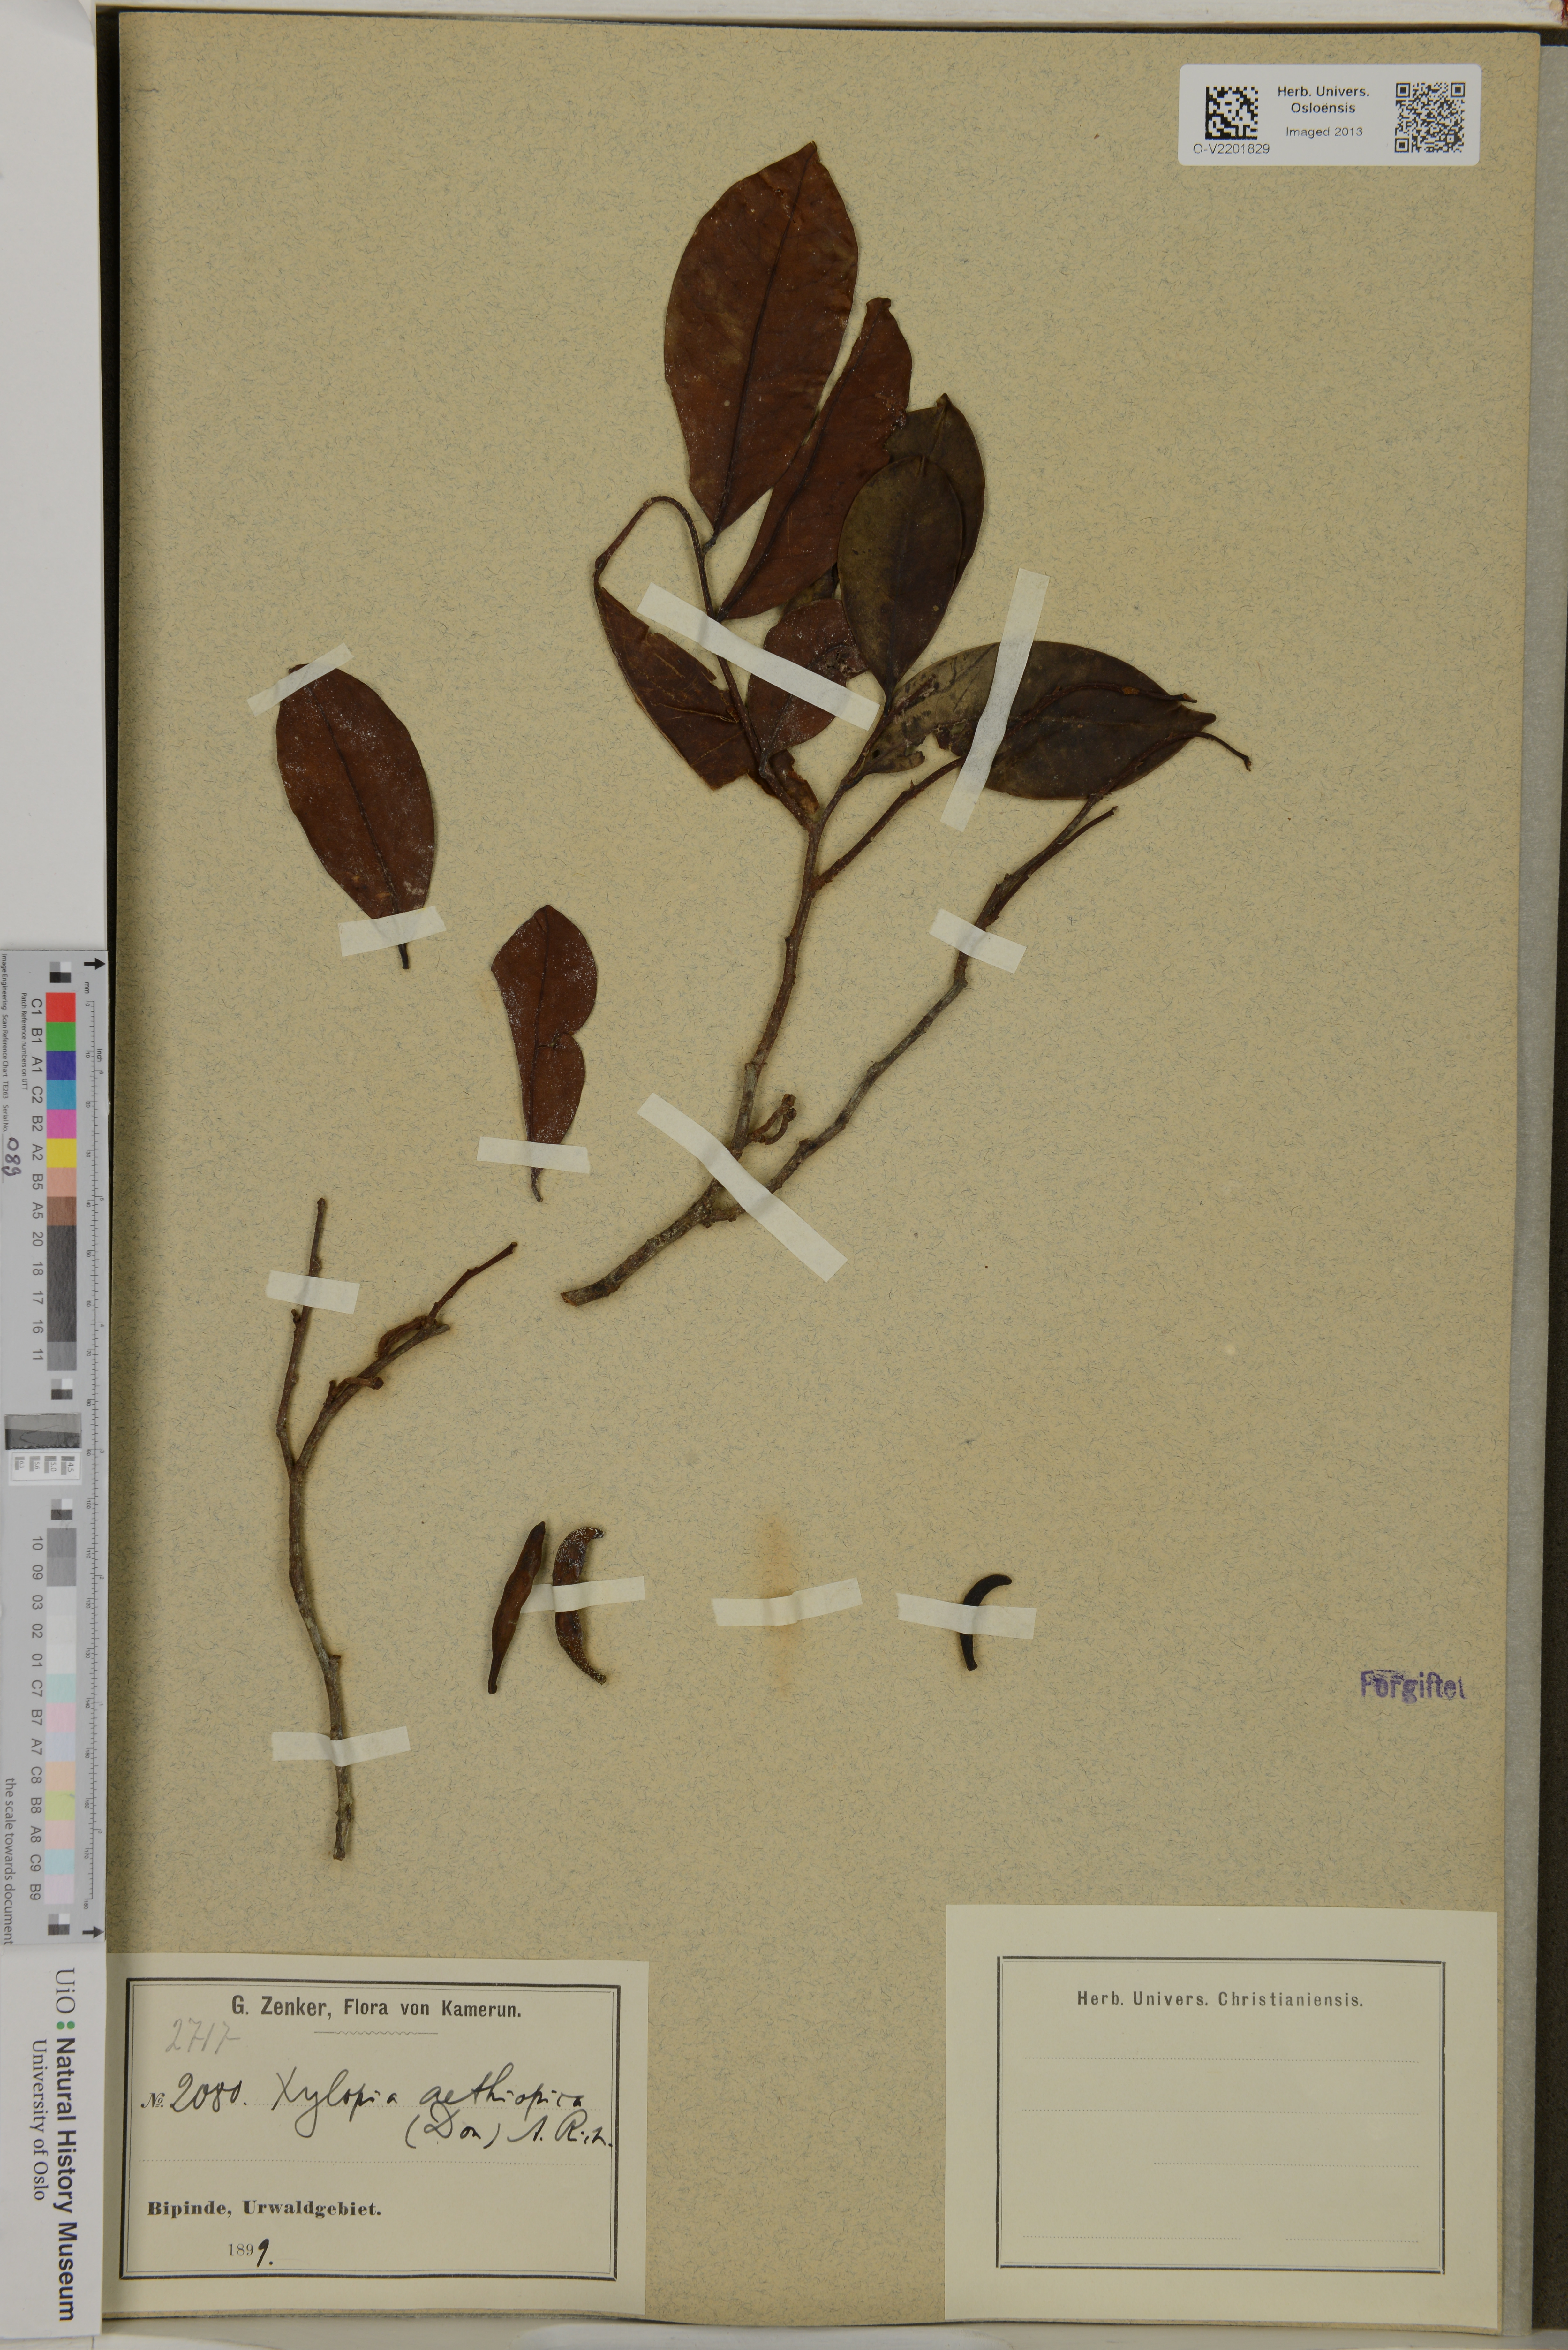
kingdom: Plantae
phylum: Tracheophyta
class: Magnoliopsida
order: Magnoliales
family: Annonaceae
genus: Xylopia
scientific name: Xylopia aethiopica
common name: Ethiopian-pepper
